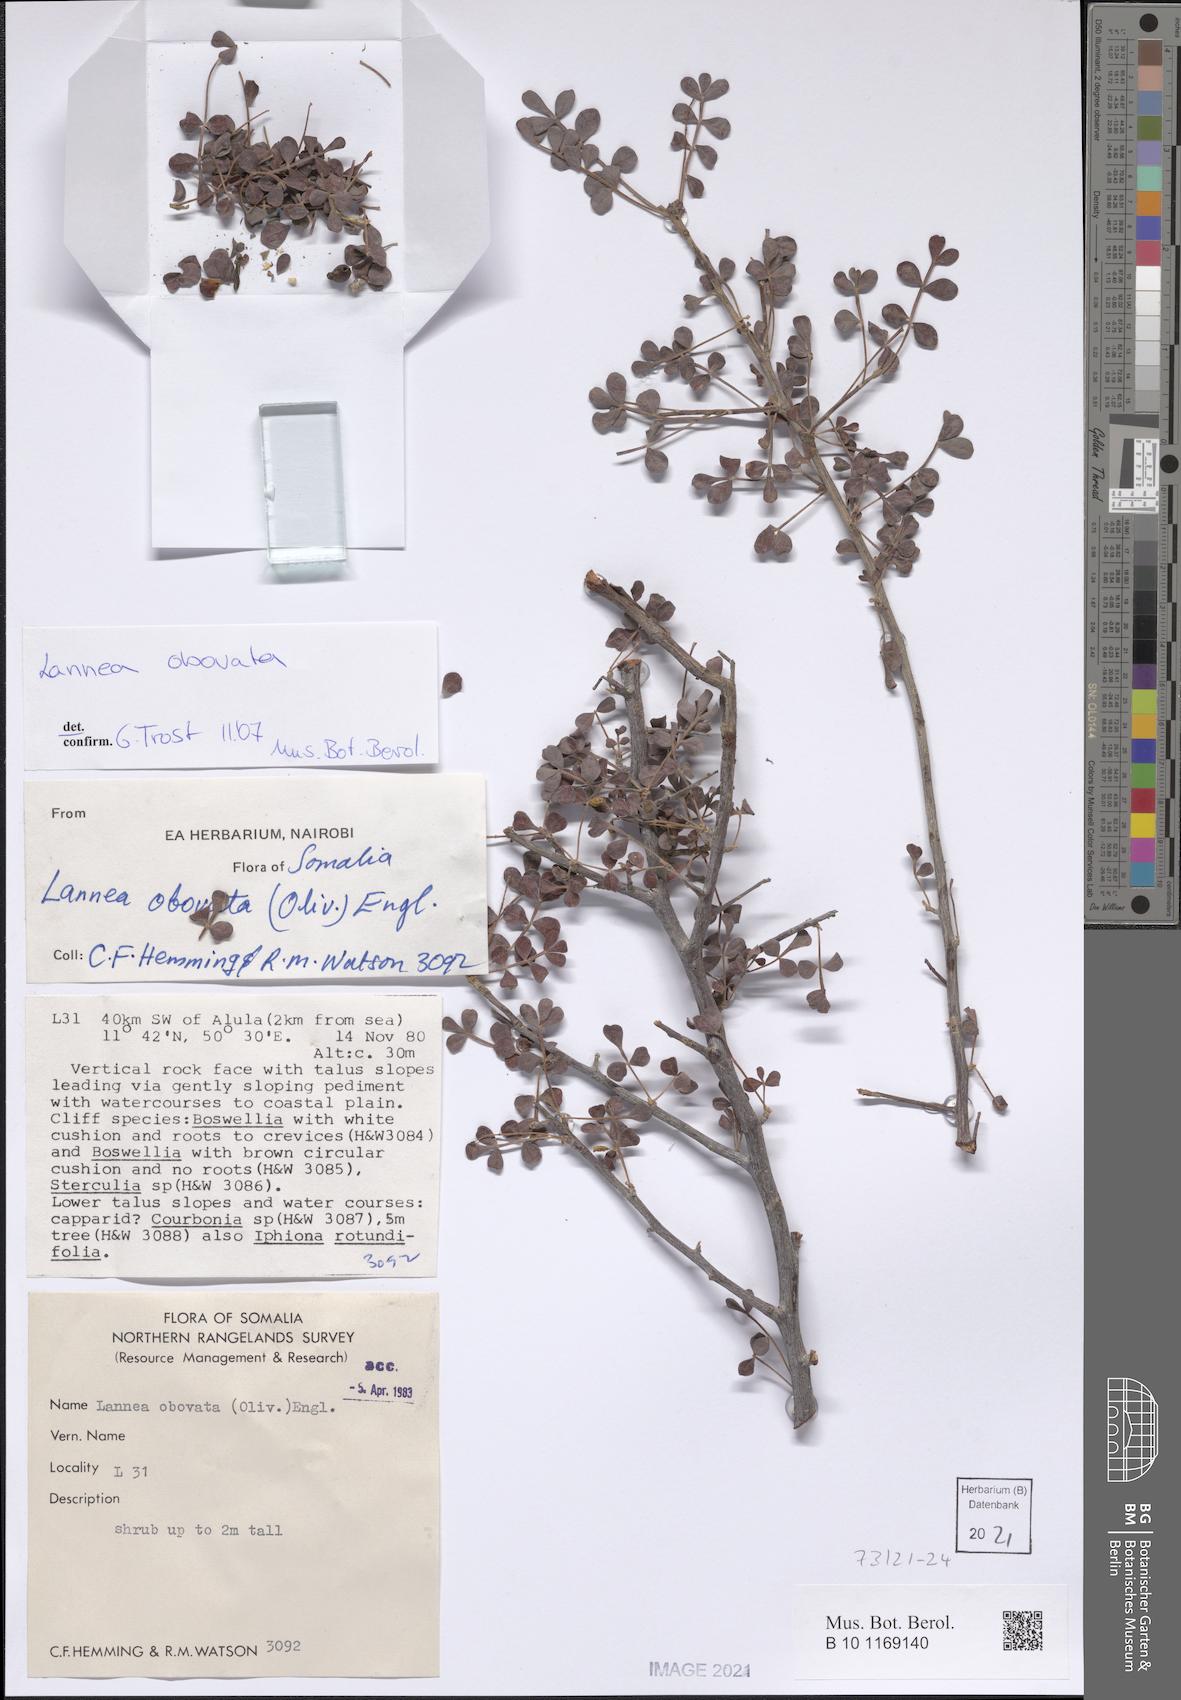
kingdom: Plantae
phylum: Tracheophyta
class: Magnoliopsida
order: Sapindales
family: Anacardiaceae
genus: Lannea
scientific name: Lannea obovata
